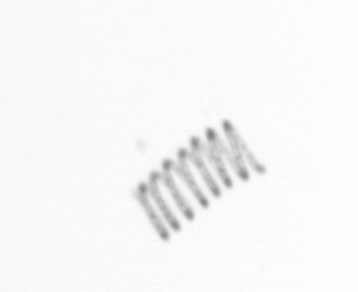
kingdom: Chromista
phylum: Ochrophyta
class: Bacillariophyceae
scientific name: Bacillariophyceae
